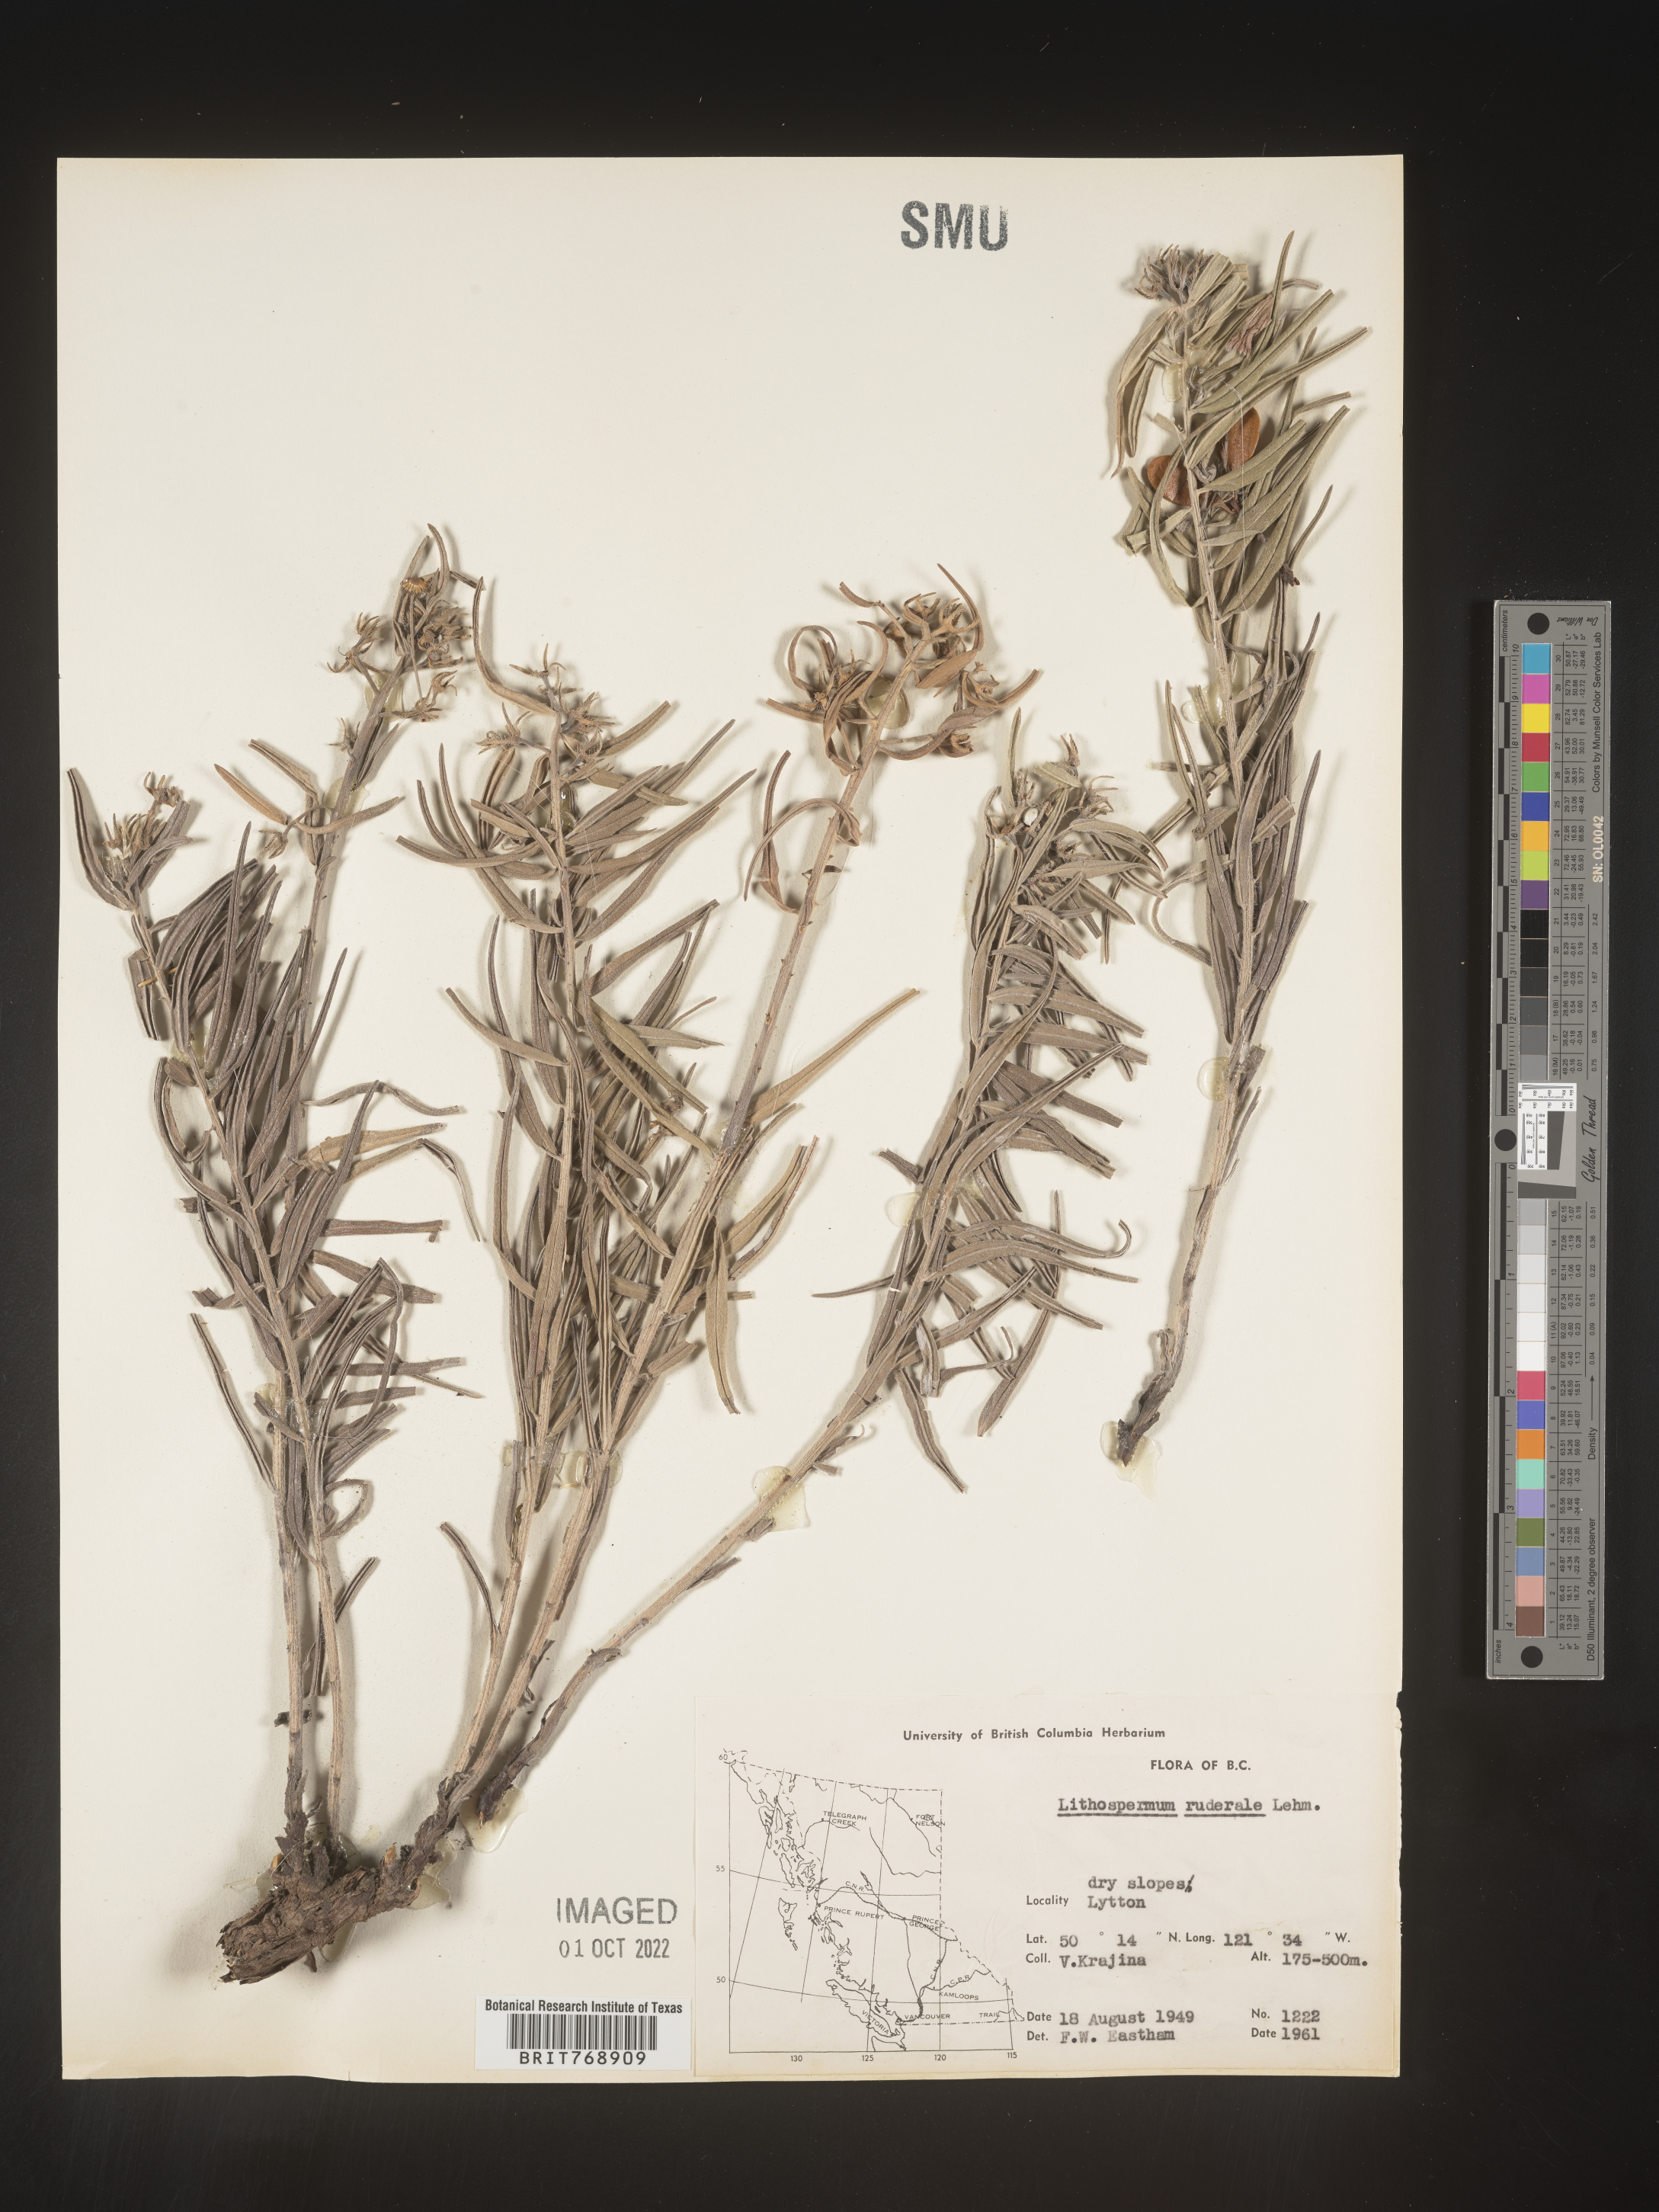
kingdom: Plantae
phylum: Tracheophyta
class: Magnoliopsida
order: Boraginales
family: Boraginaceae
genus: Lithospermum
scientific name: Lithospermum
